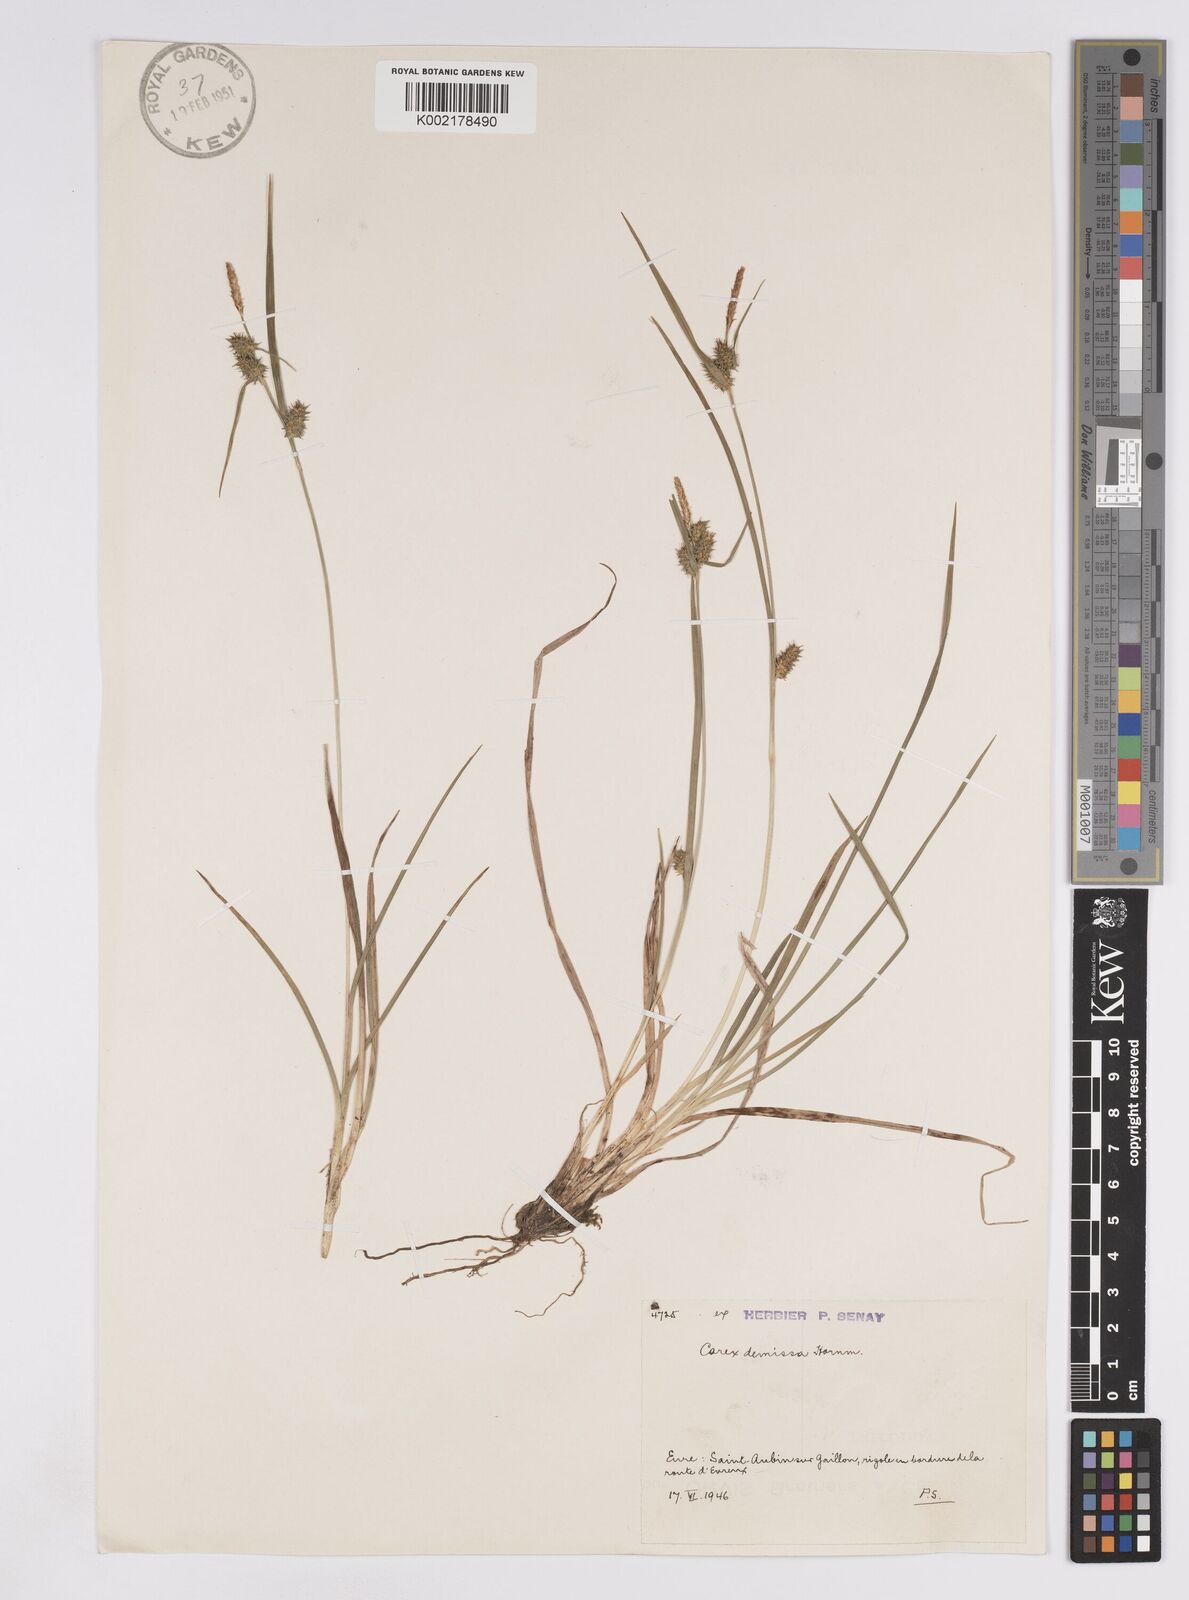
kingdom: Plantae
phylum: Tracheophyta
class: Liliopsida
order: Poales
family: Cyperaceae
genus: Carex
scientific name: Carex demissa
